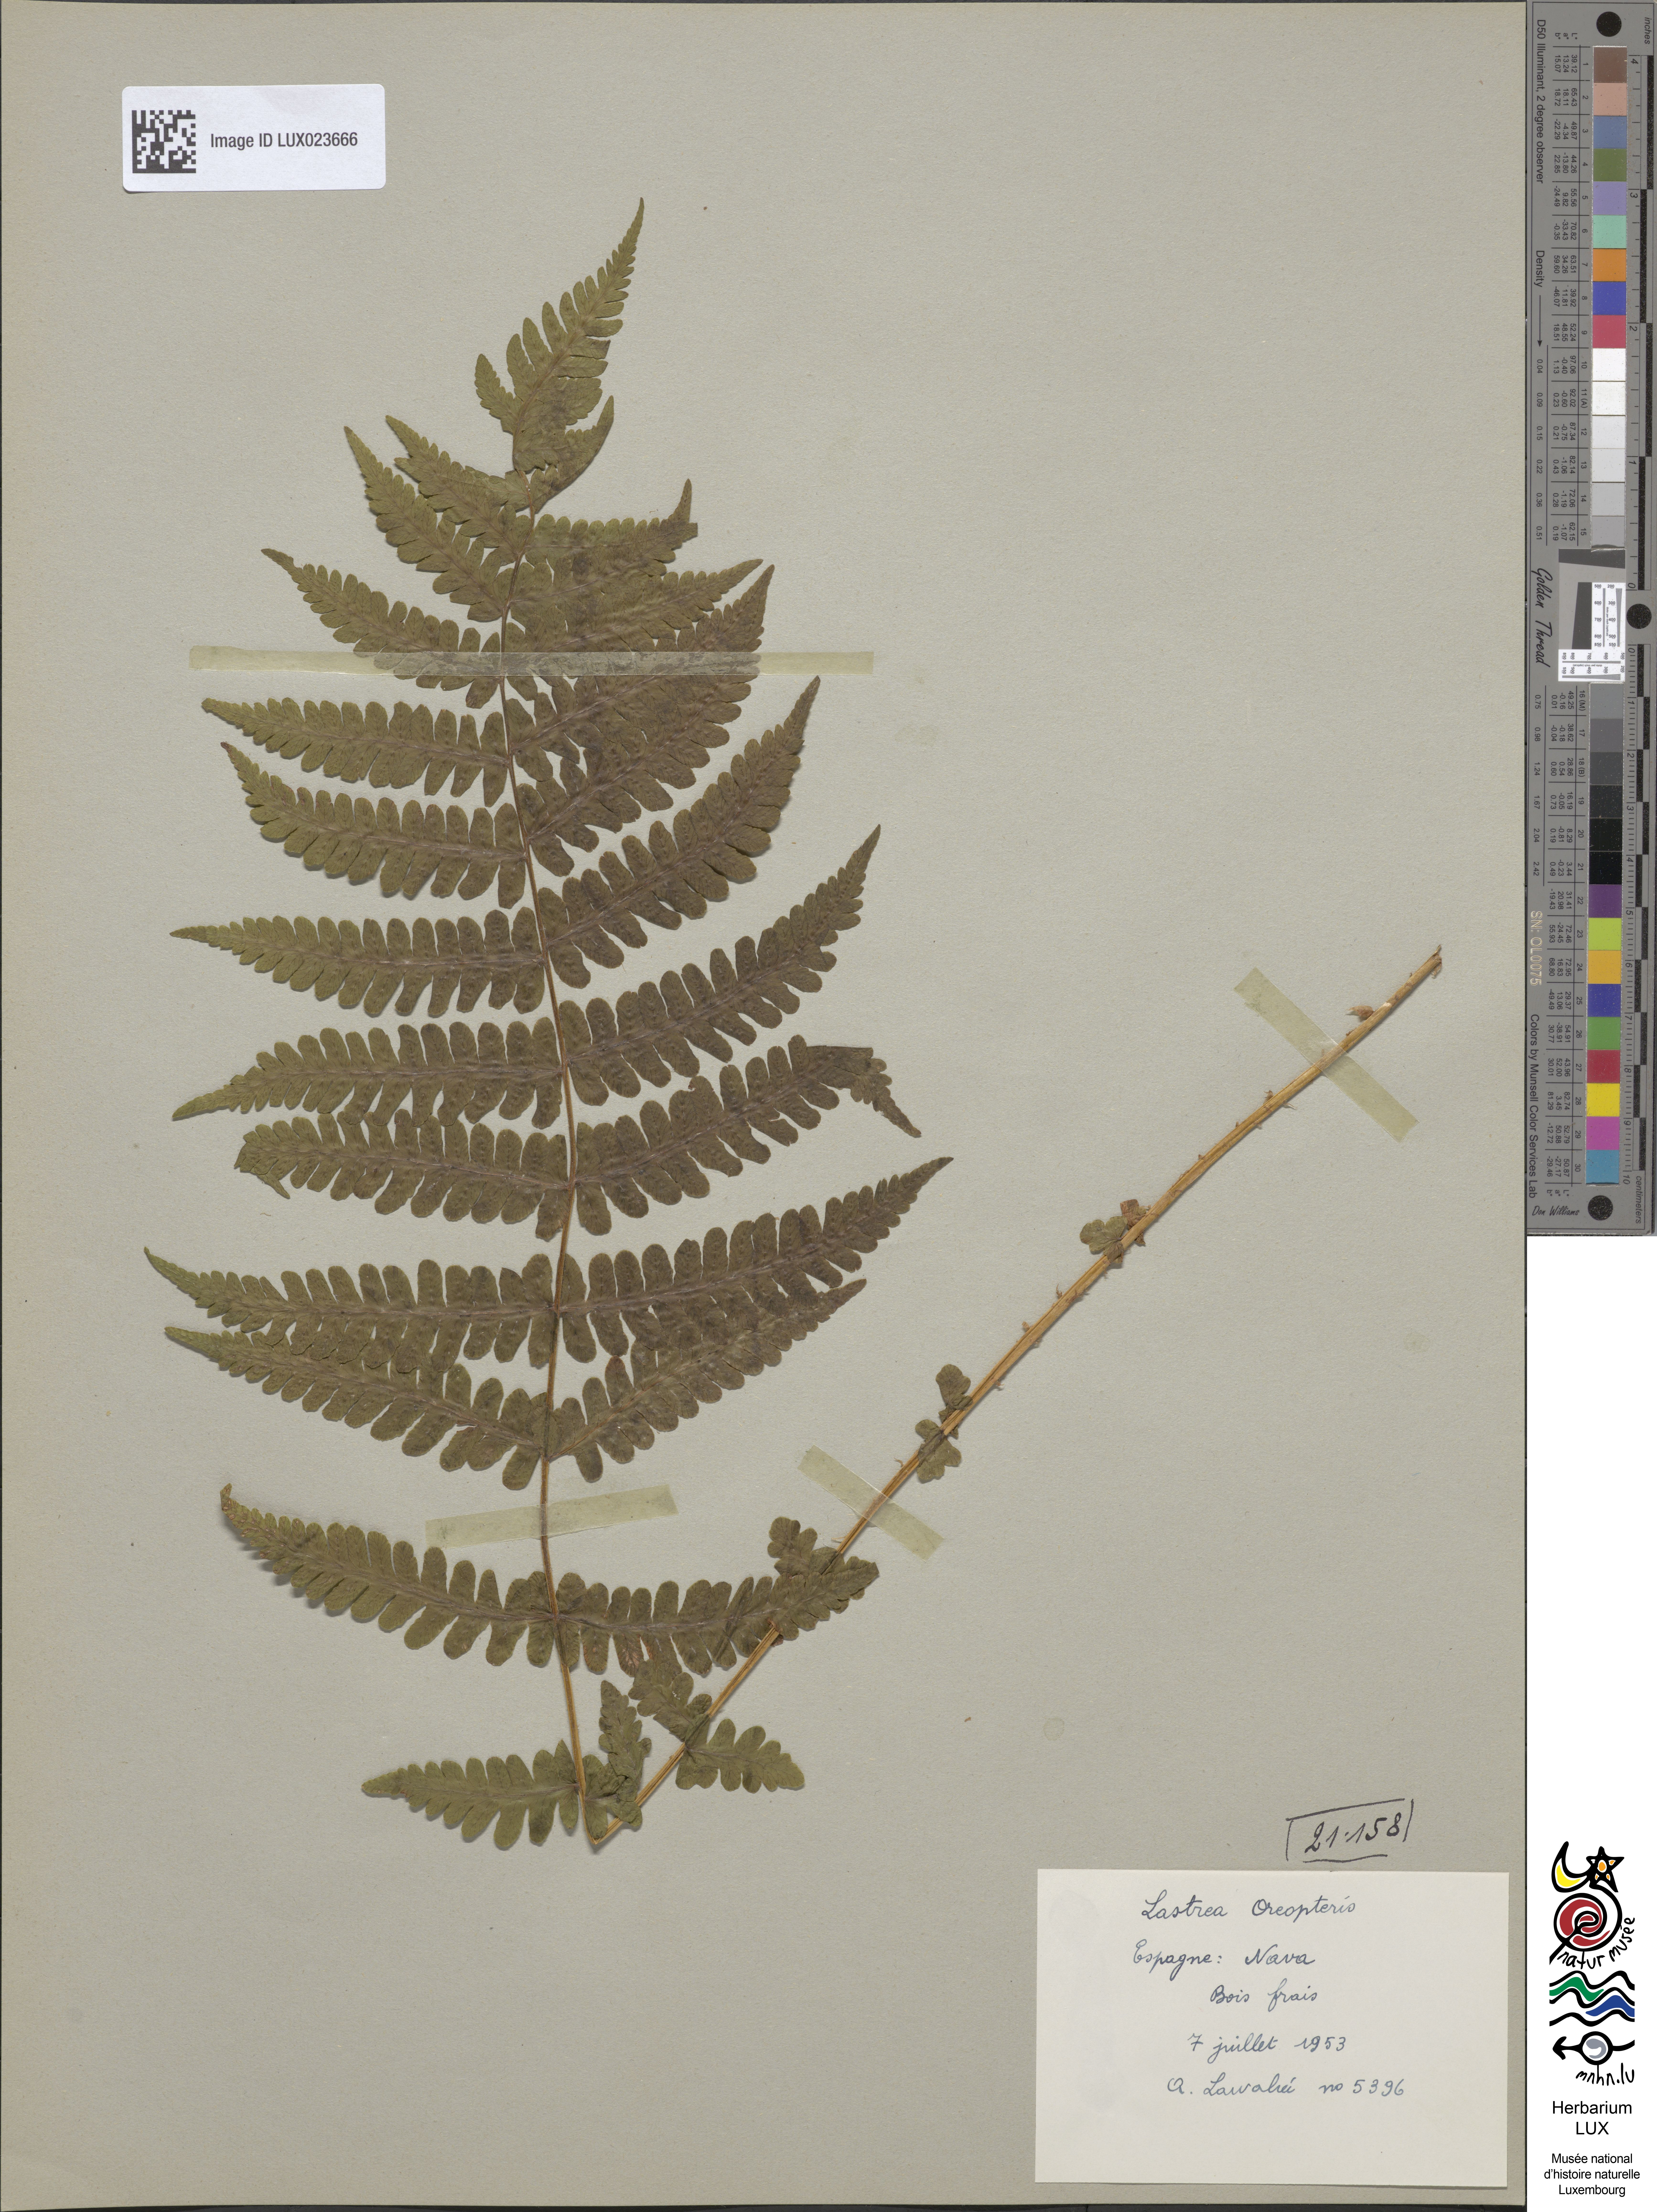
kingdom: Plantae
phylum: Tracheophyta
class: Polypodiopsida
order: Polypodiales
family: Thelypteridaceae
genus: Oreopteris
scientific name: Oreopteris limbosperma
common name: Lemon-scented fern
